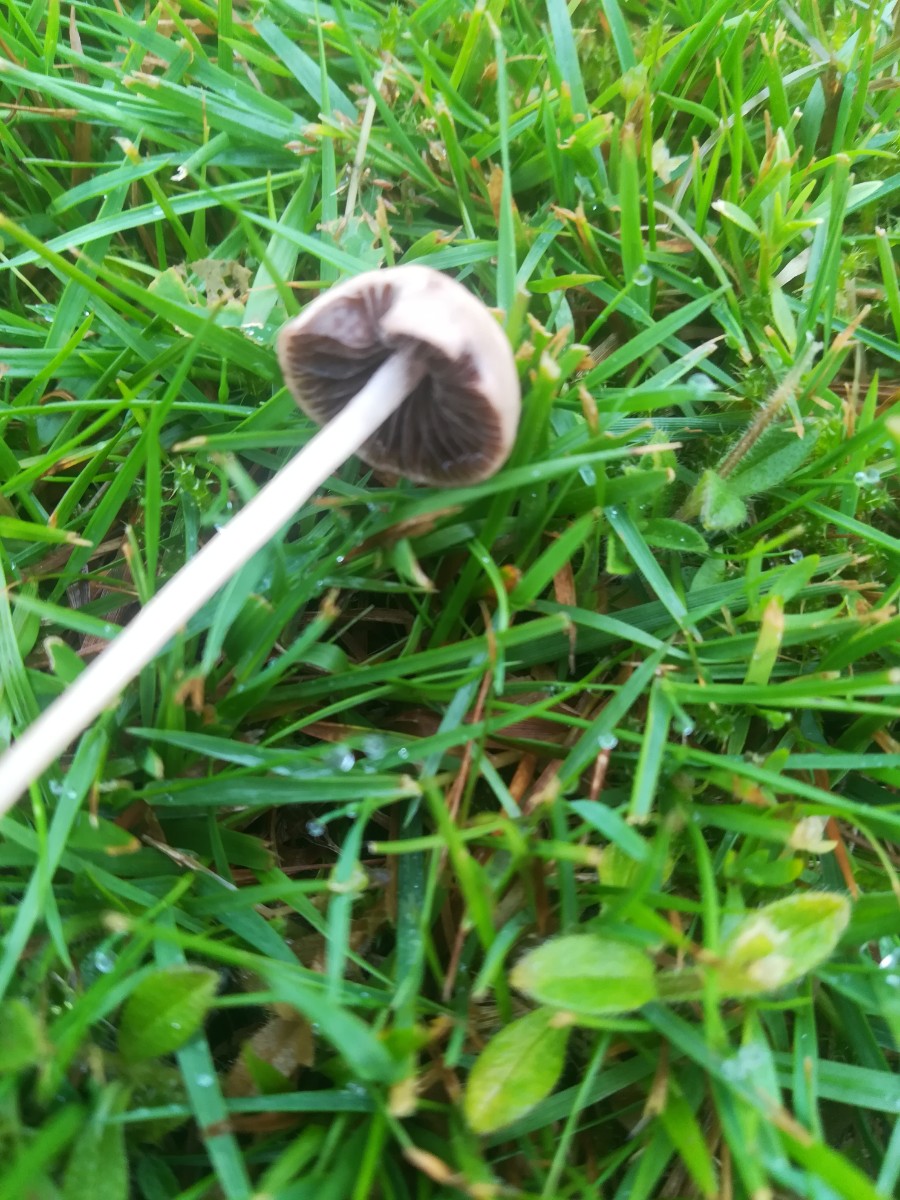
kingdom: Fungi
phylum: Basidiomycota
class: Agaricomycetes
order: Agaricales
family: Bolbitiaceae
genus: Panaeolina
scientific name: Panaeolina foenisecii
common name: høslætsvamp
